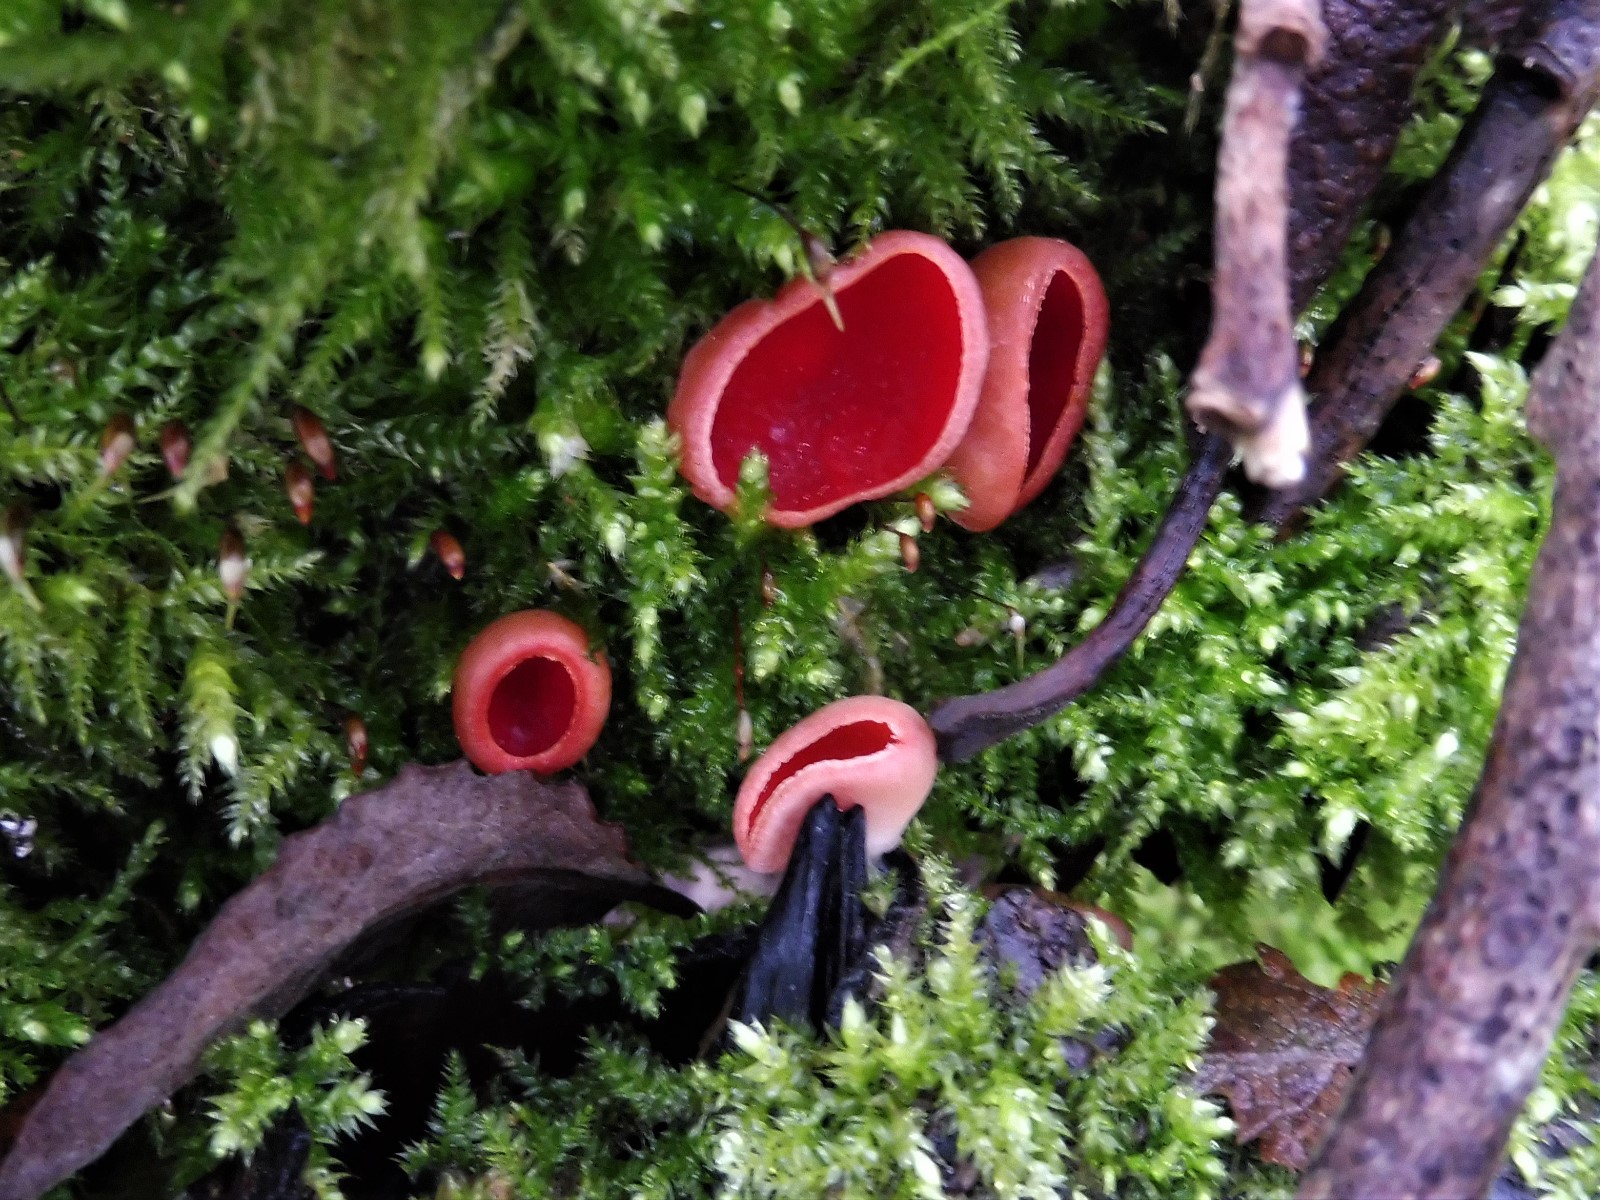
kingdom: Fungi
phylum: Ascomycota
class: Pezizomycetes
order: Pezizales
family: Sarcoscyphaceae
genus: Sarcoscypha
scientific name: Sarcoscypha austriaca
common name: krølhåret pragtbæger
